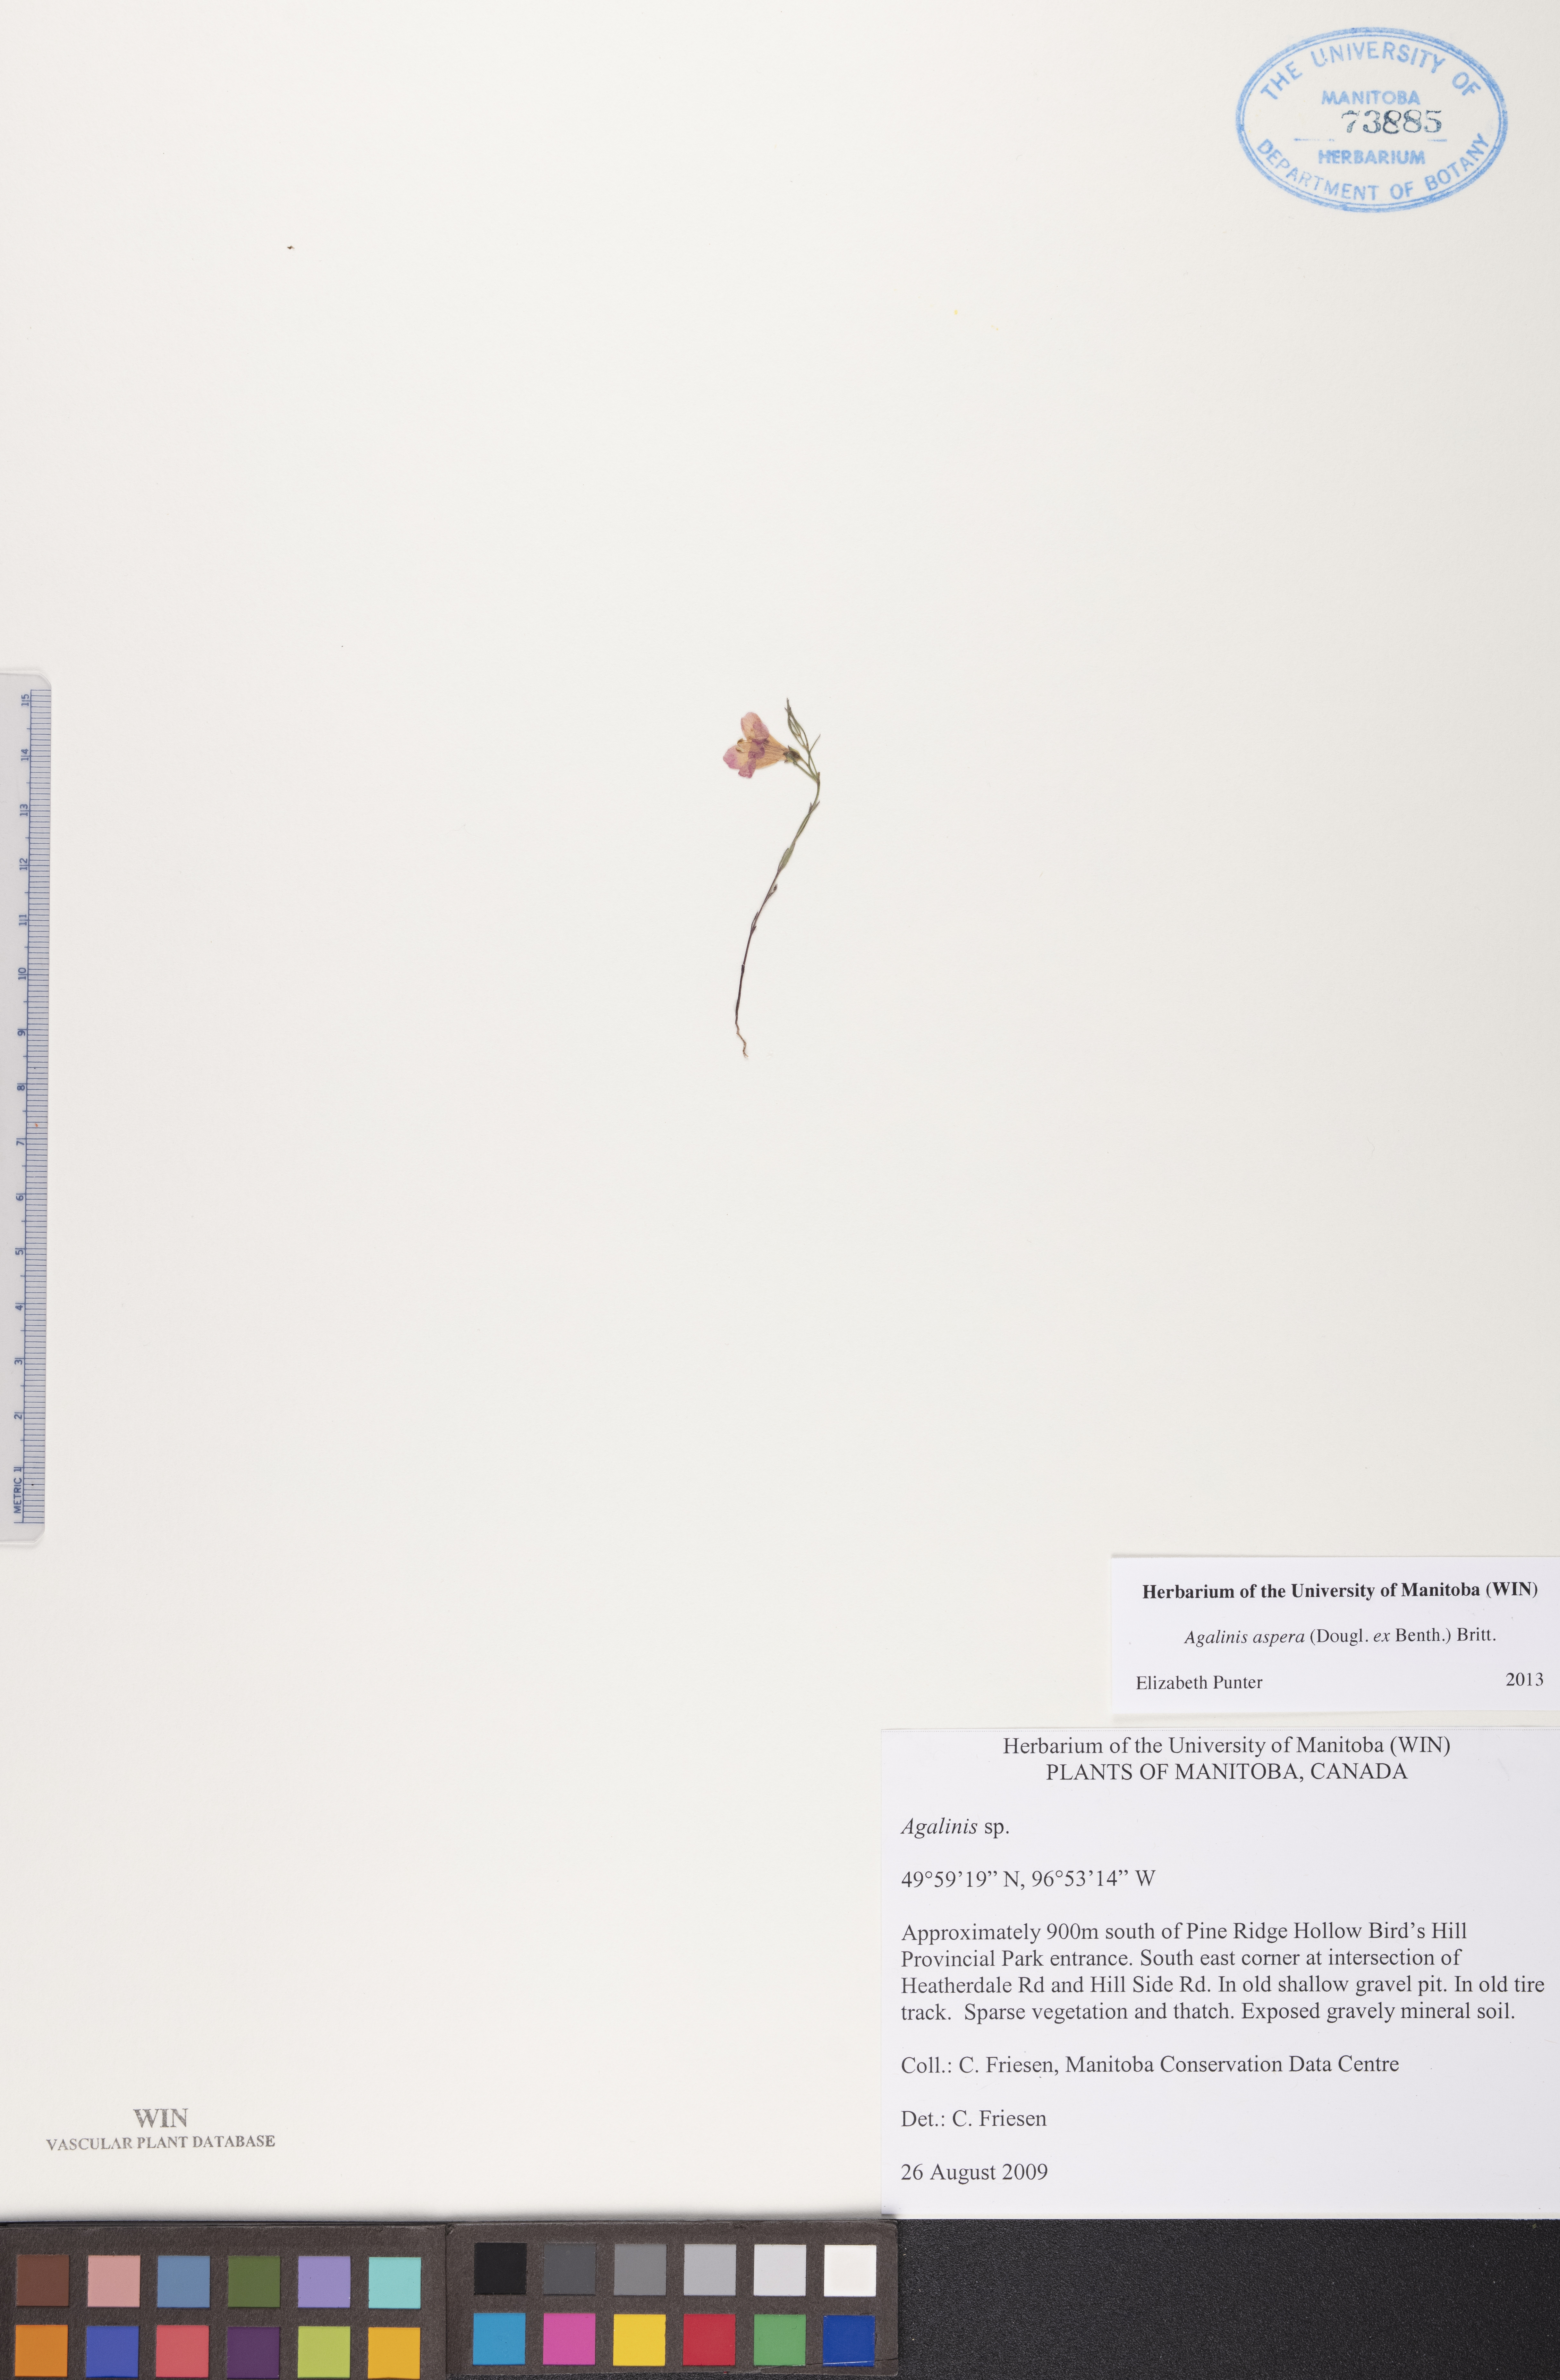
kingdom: Plantae
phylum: Tracheophyta
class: Magnoliopsida
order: Lamiales
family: Orobanchaceae
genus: Agalinis
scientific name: Agalinis aspera
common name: Rough agalinis
